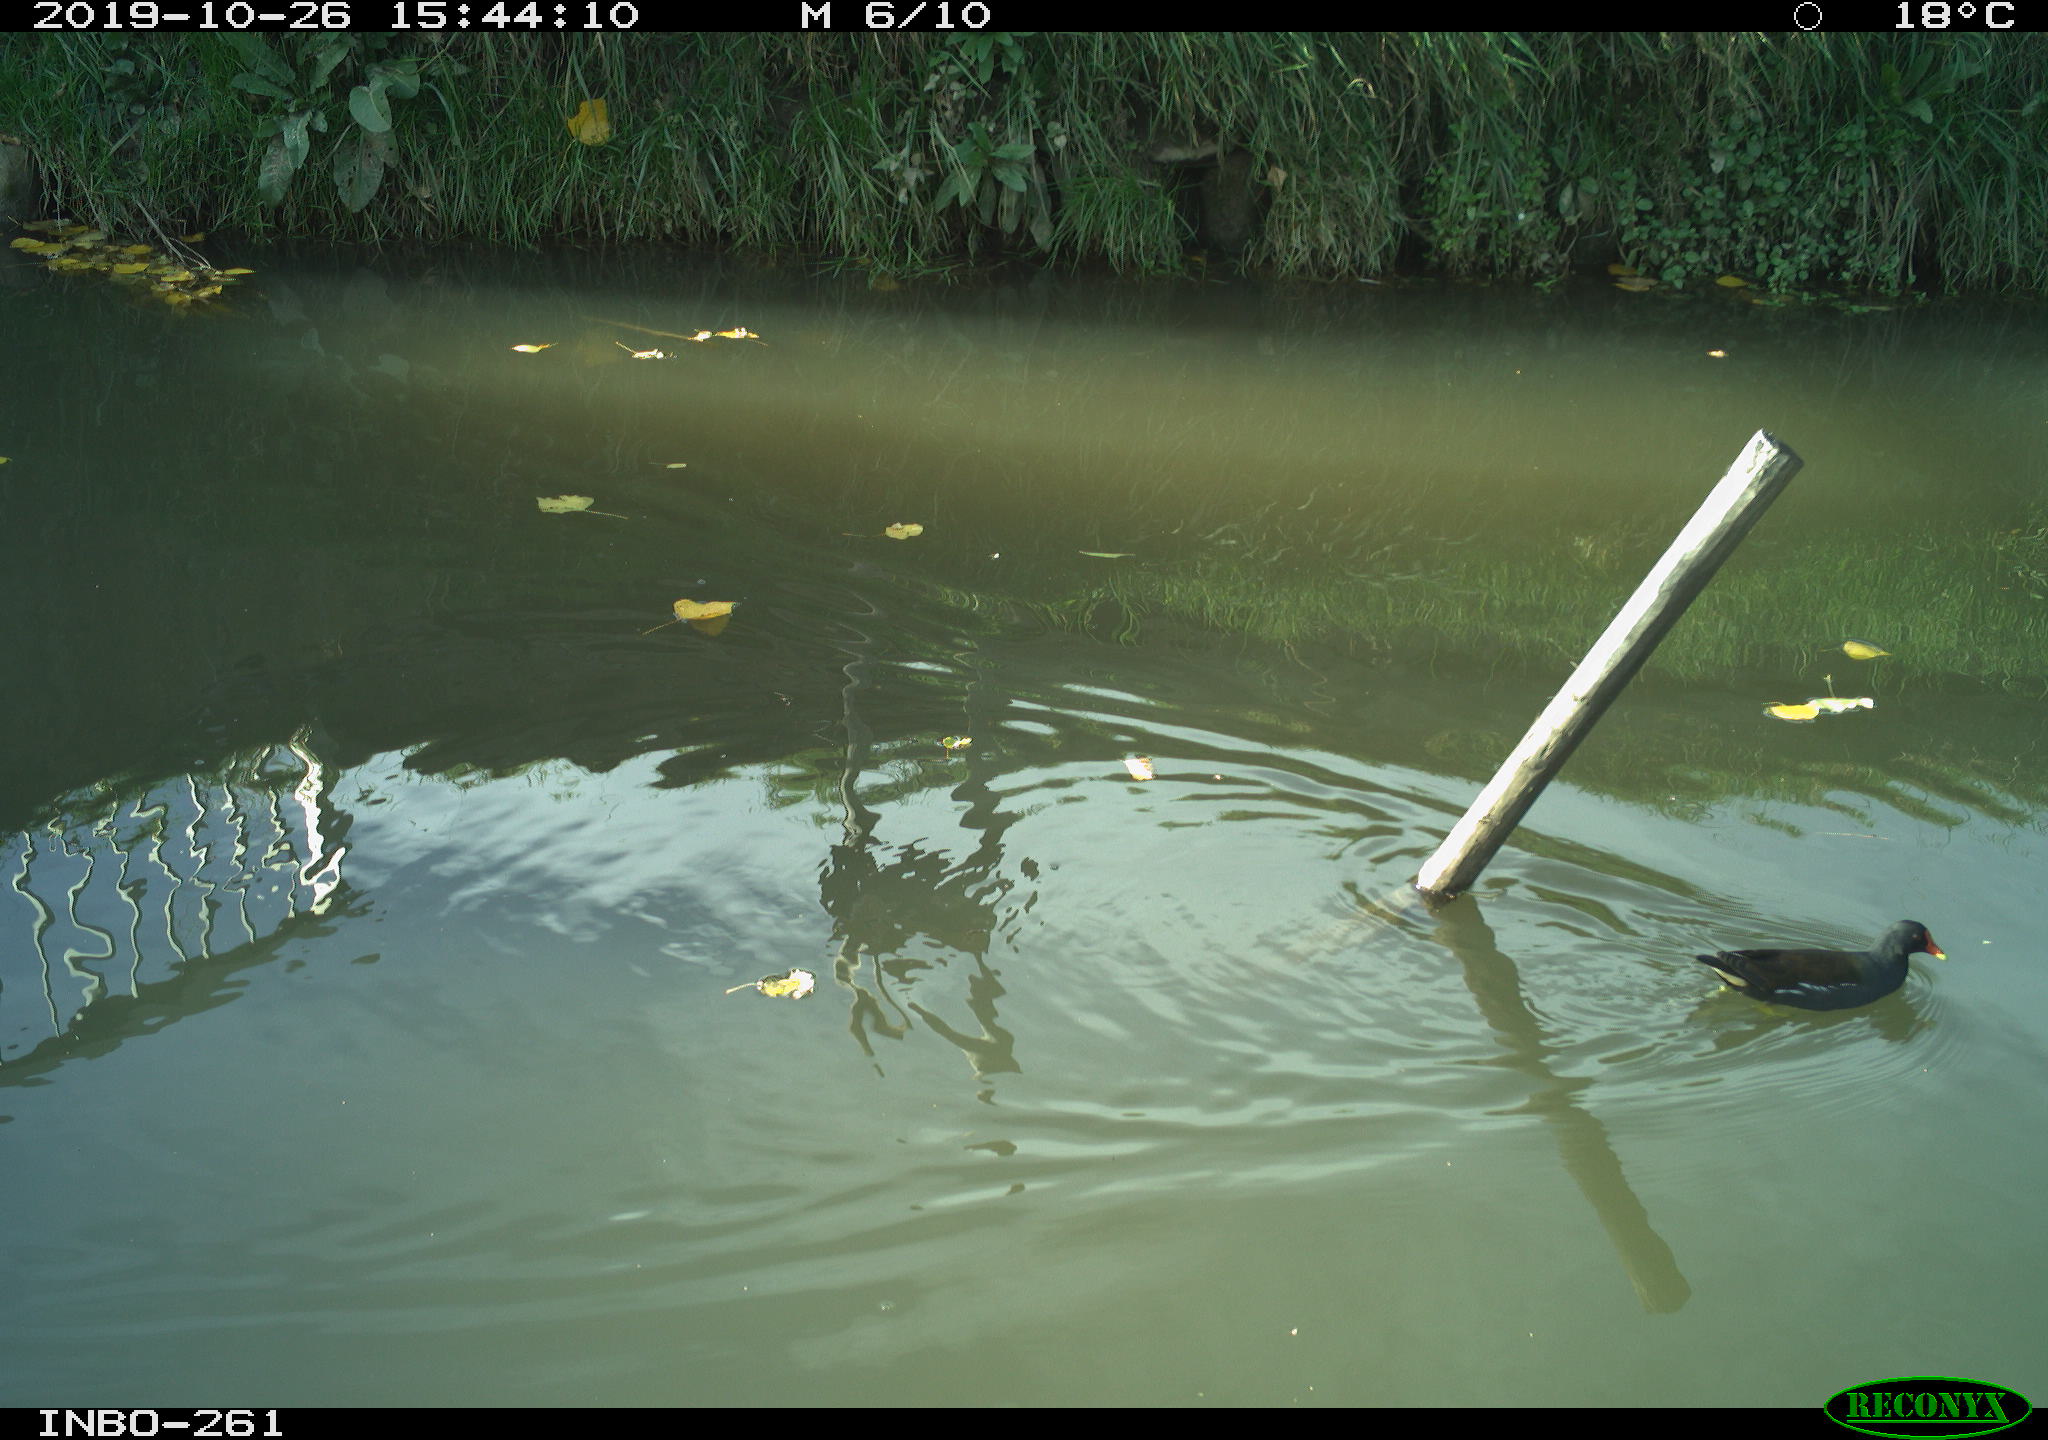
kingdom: Animalia
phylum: Chordata
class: Aves
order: Gruiformes
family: Rallidae
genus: Gallinula
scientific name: Gallinula chloropus
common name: Common moorhen
